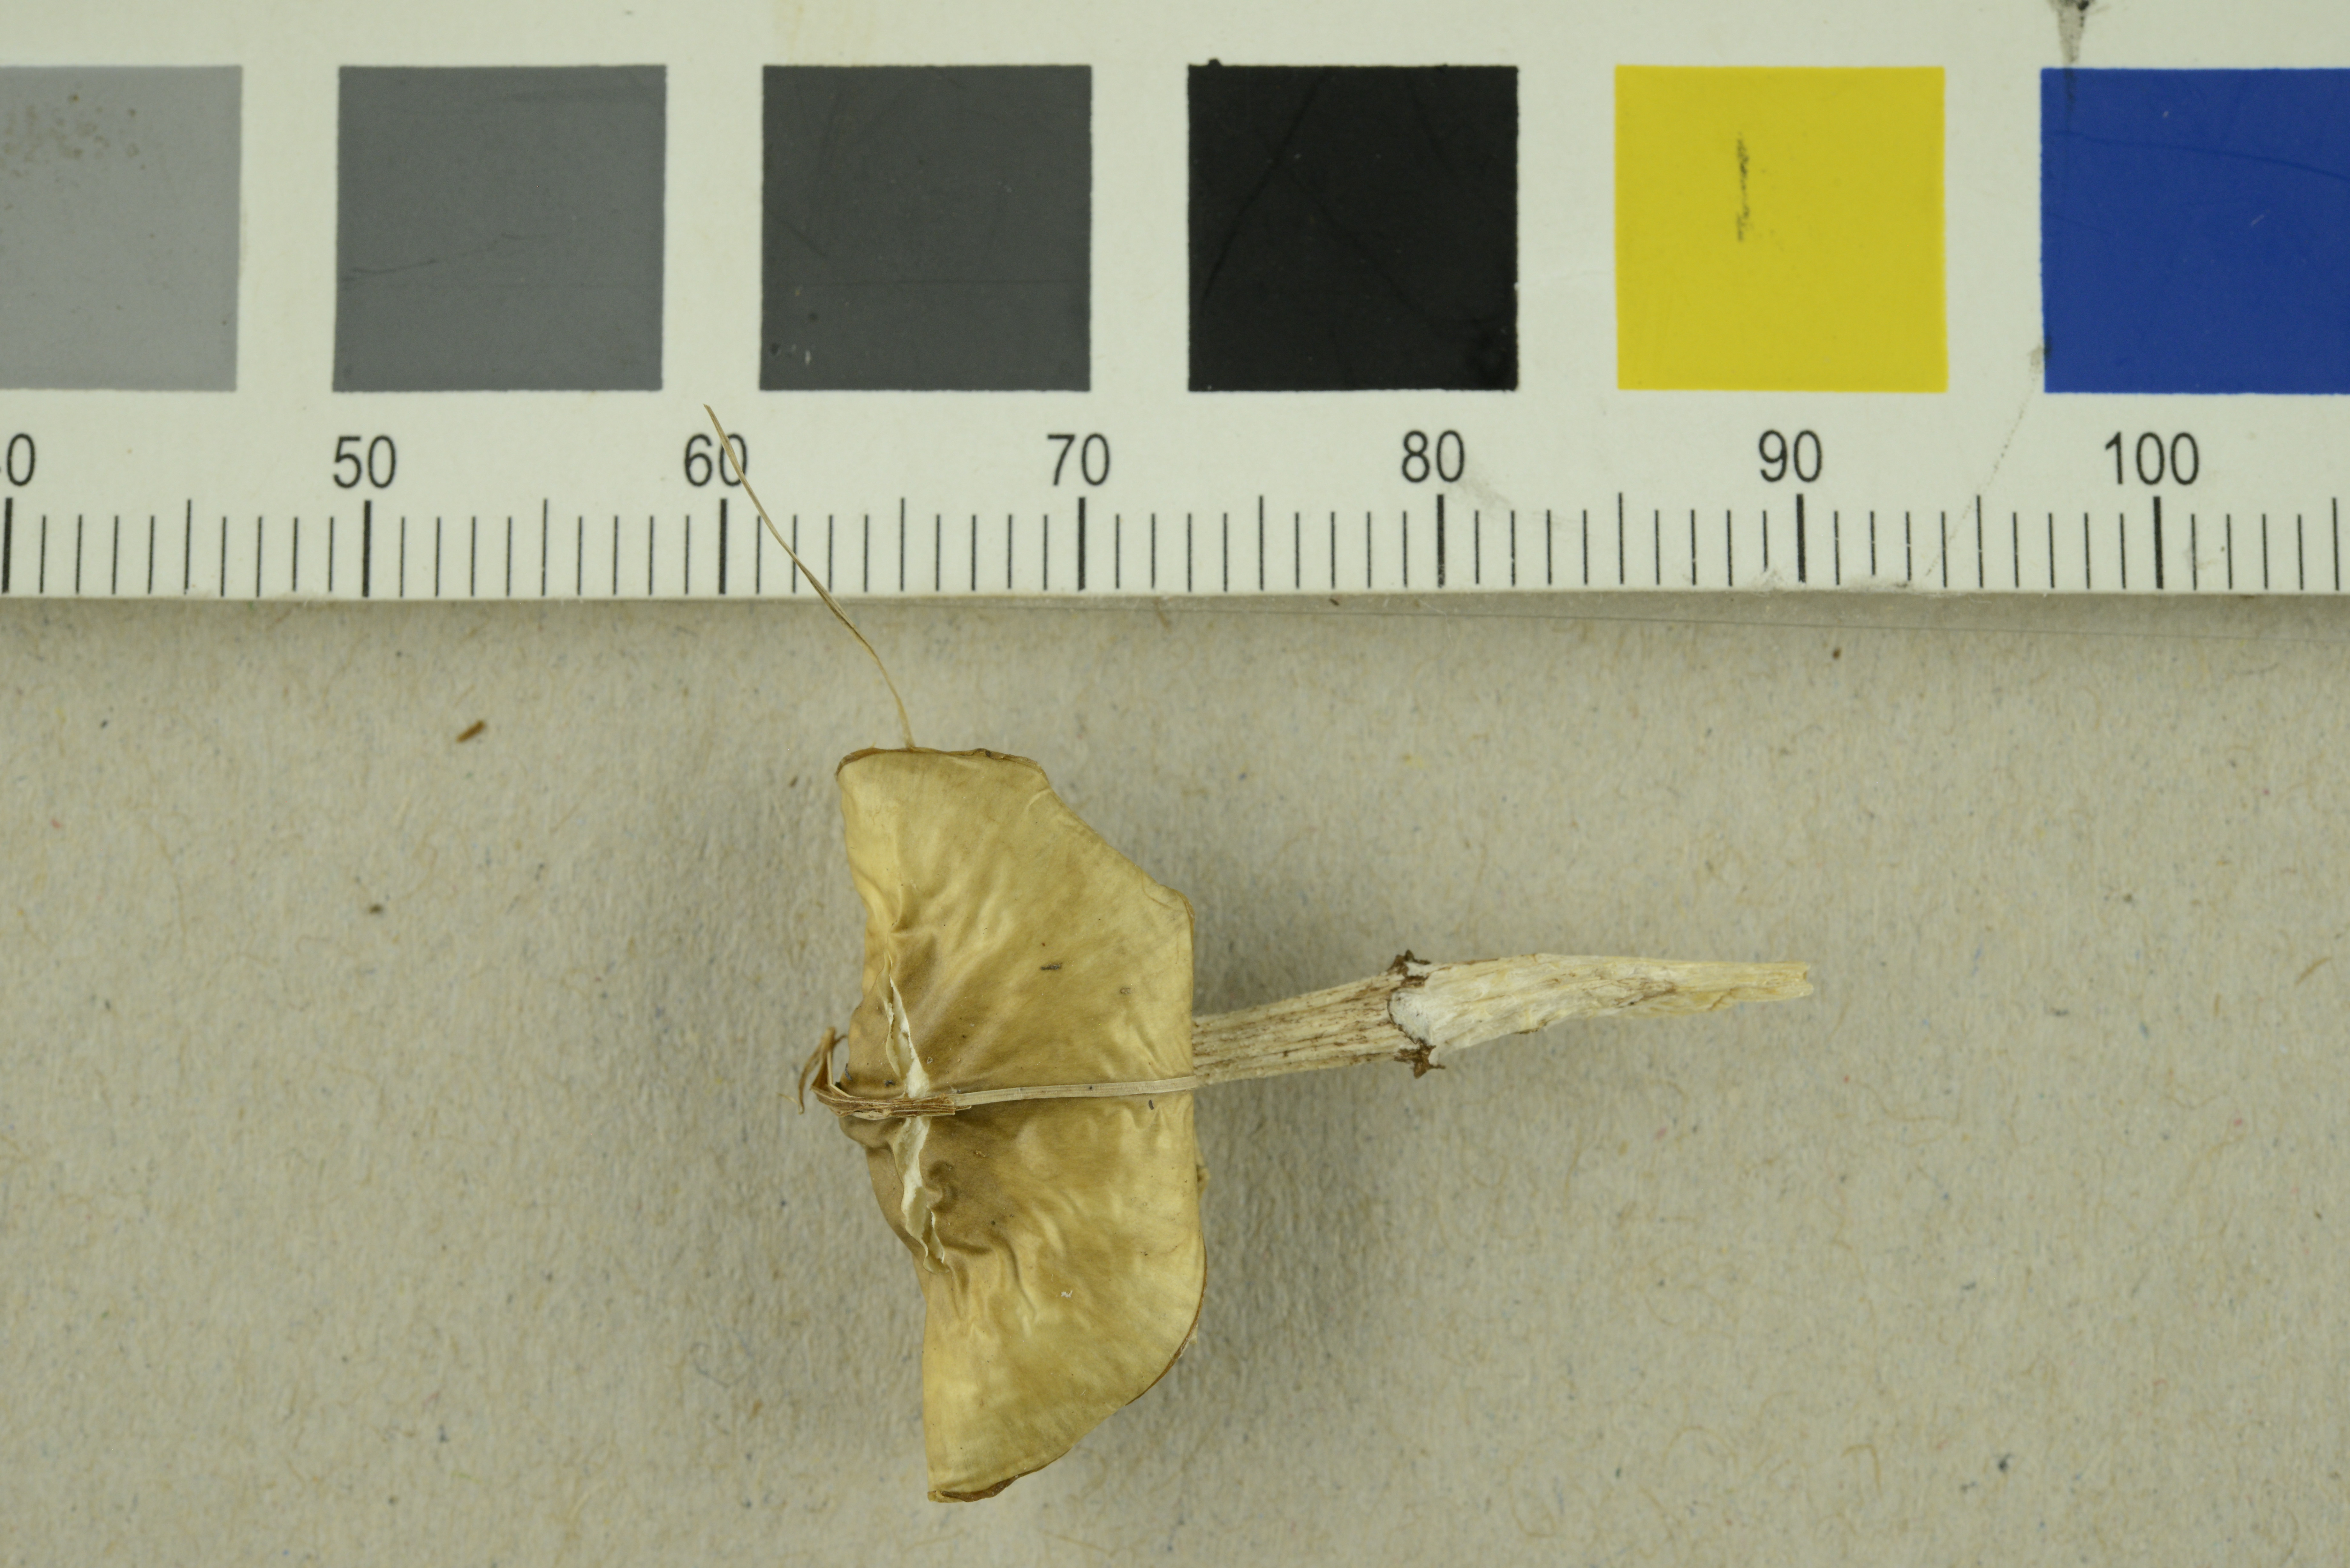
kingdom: Fungi
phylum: Basidiomycota
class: Agaricomycetes
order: Agaricales
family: Strophariaceae
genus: Stropharia
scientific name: Stropharia inuncta
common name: Smoky roundhead
